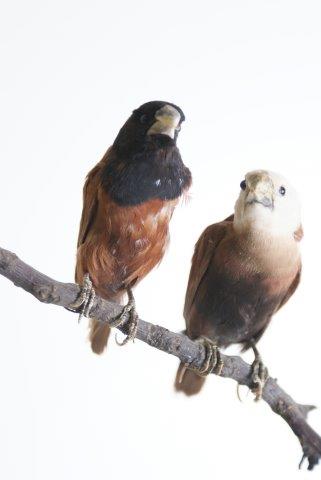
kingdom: Animalia
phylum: Chordata
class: Aves
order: Passeriformes
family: Estrildidae
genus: Lonchura
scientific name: Lonchura maja
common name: White-headed munia
